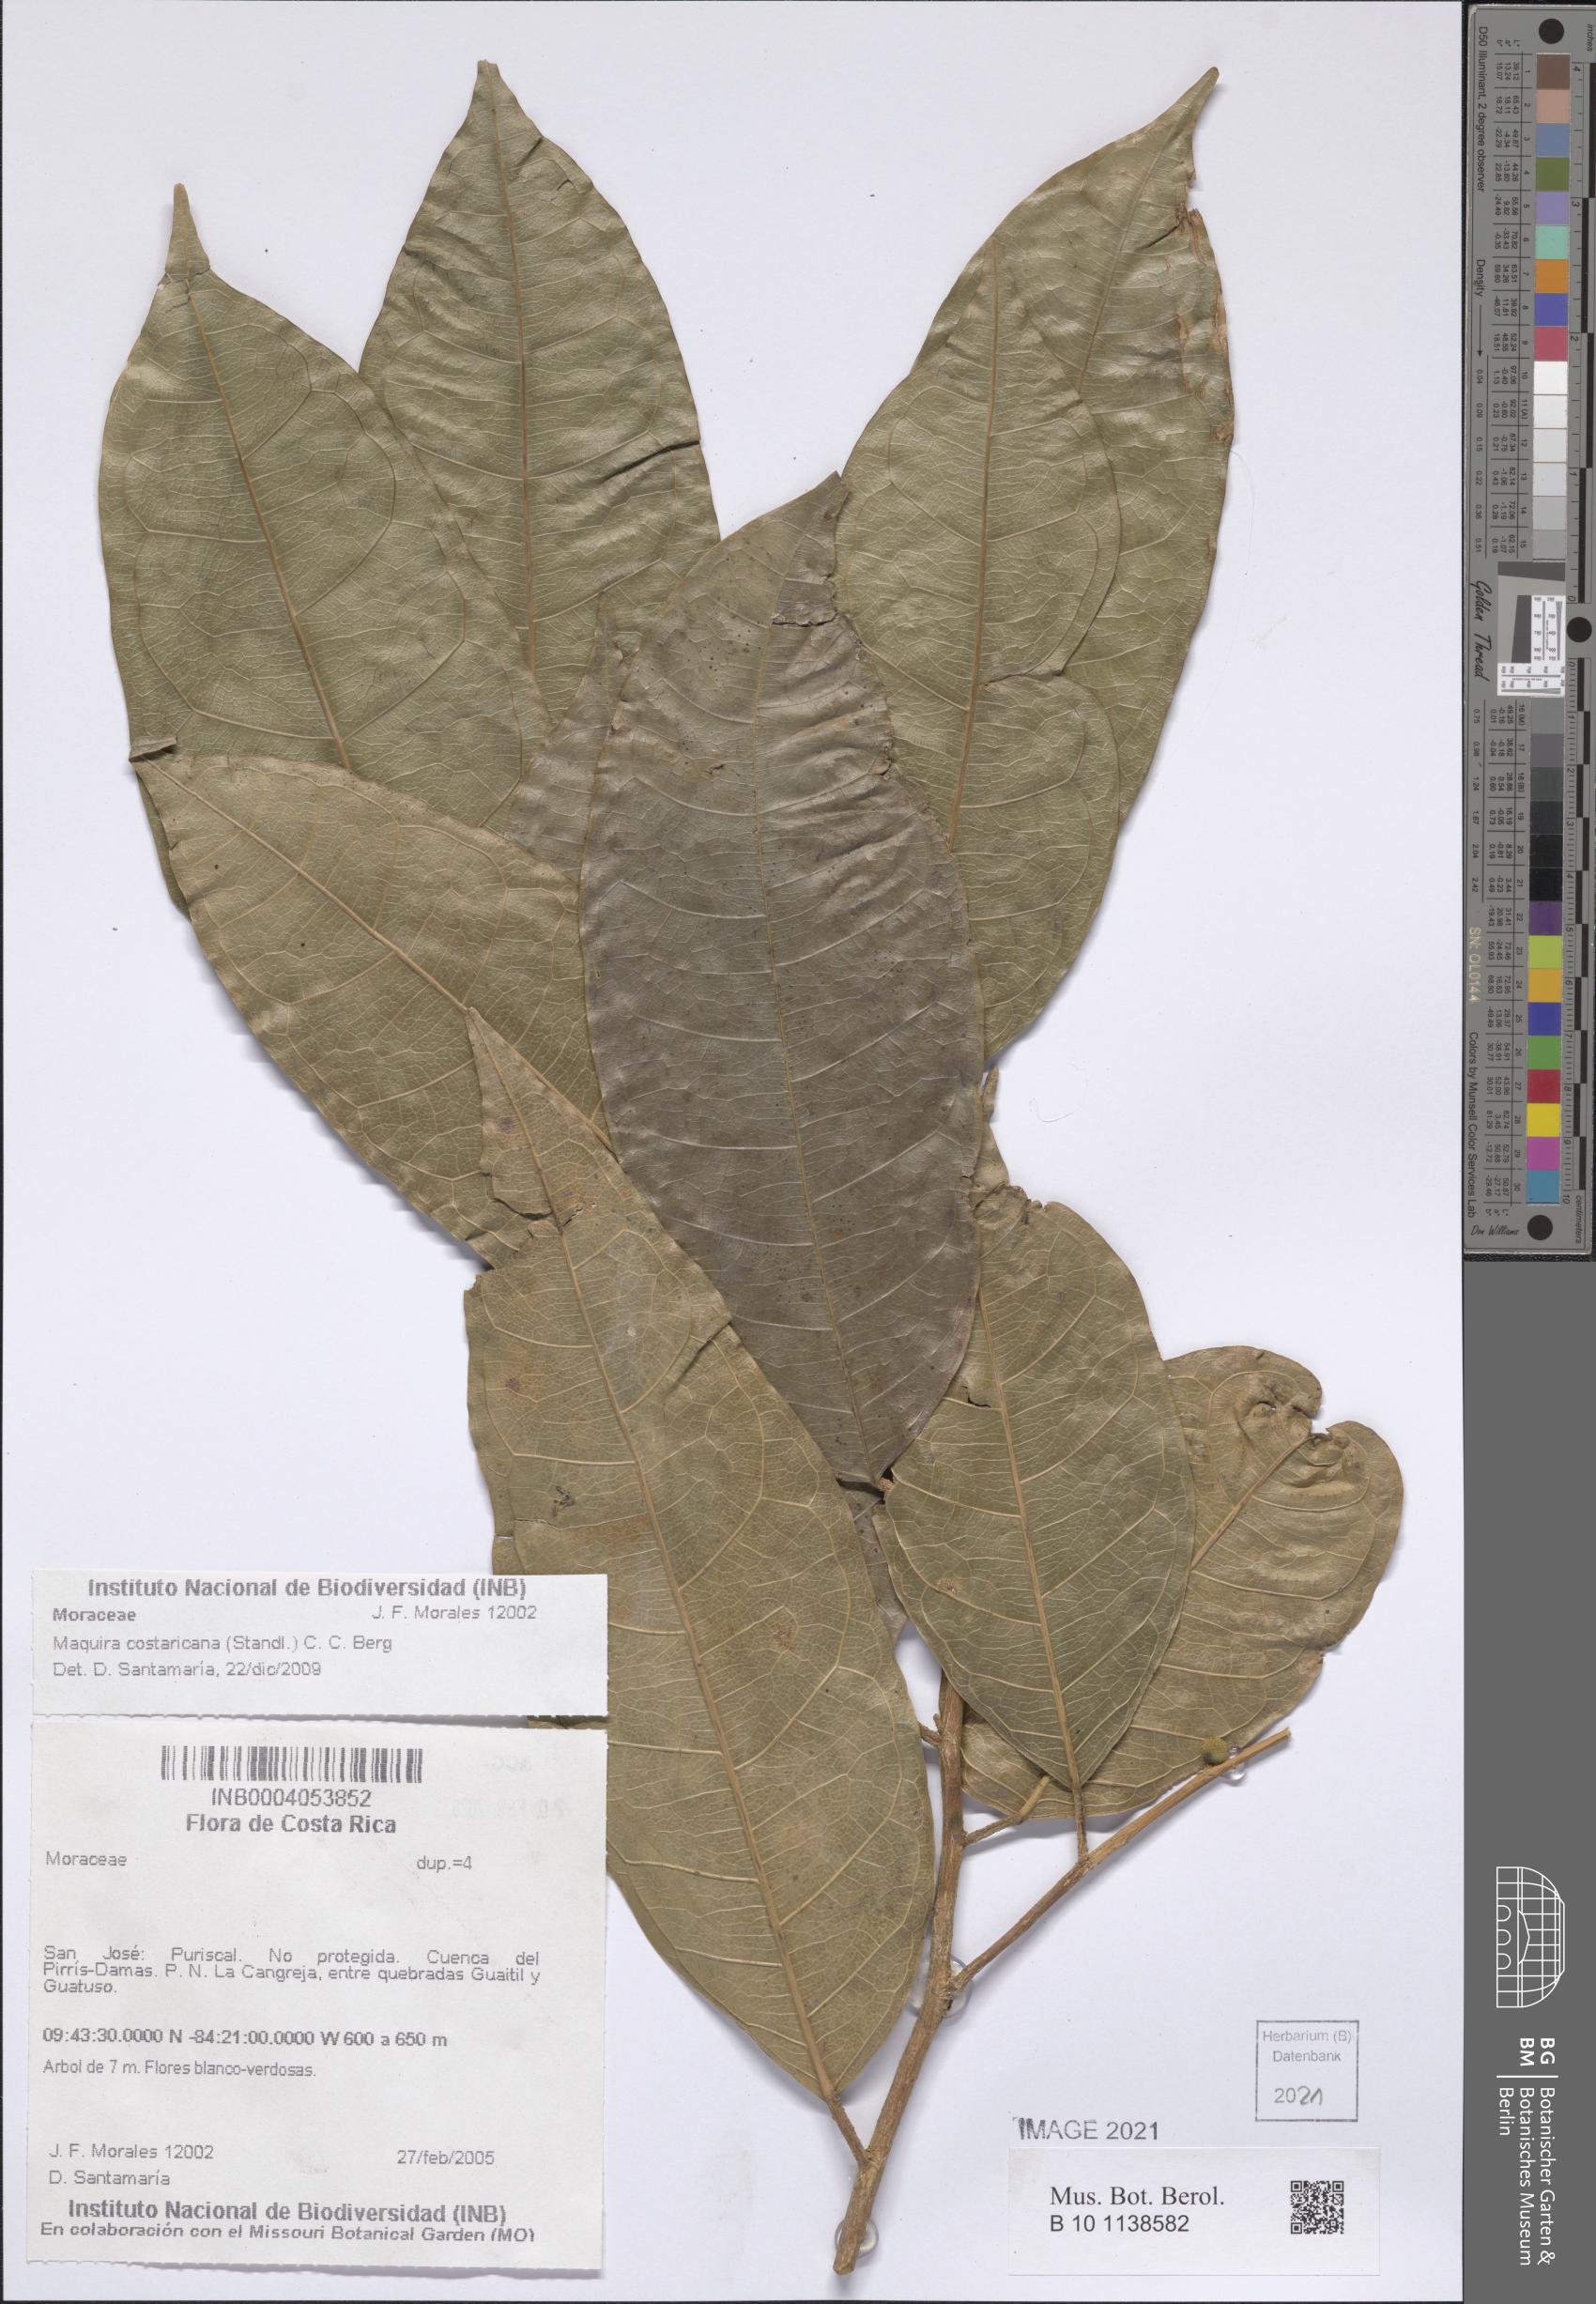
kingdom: Plantae
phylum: Tracheophyta
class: Magnoliopsida
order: Rosales
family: Moraceae
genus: Maquira
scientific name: Maquira guianensis
